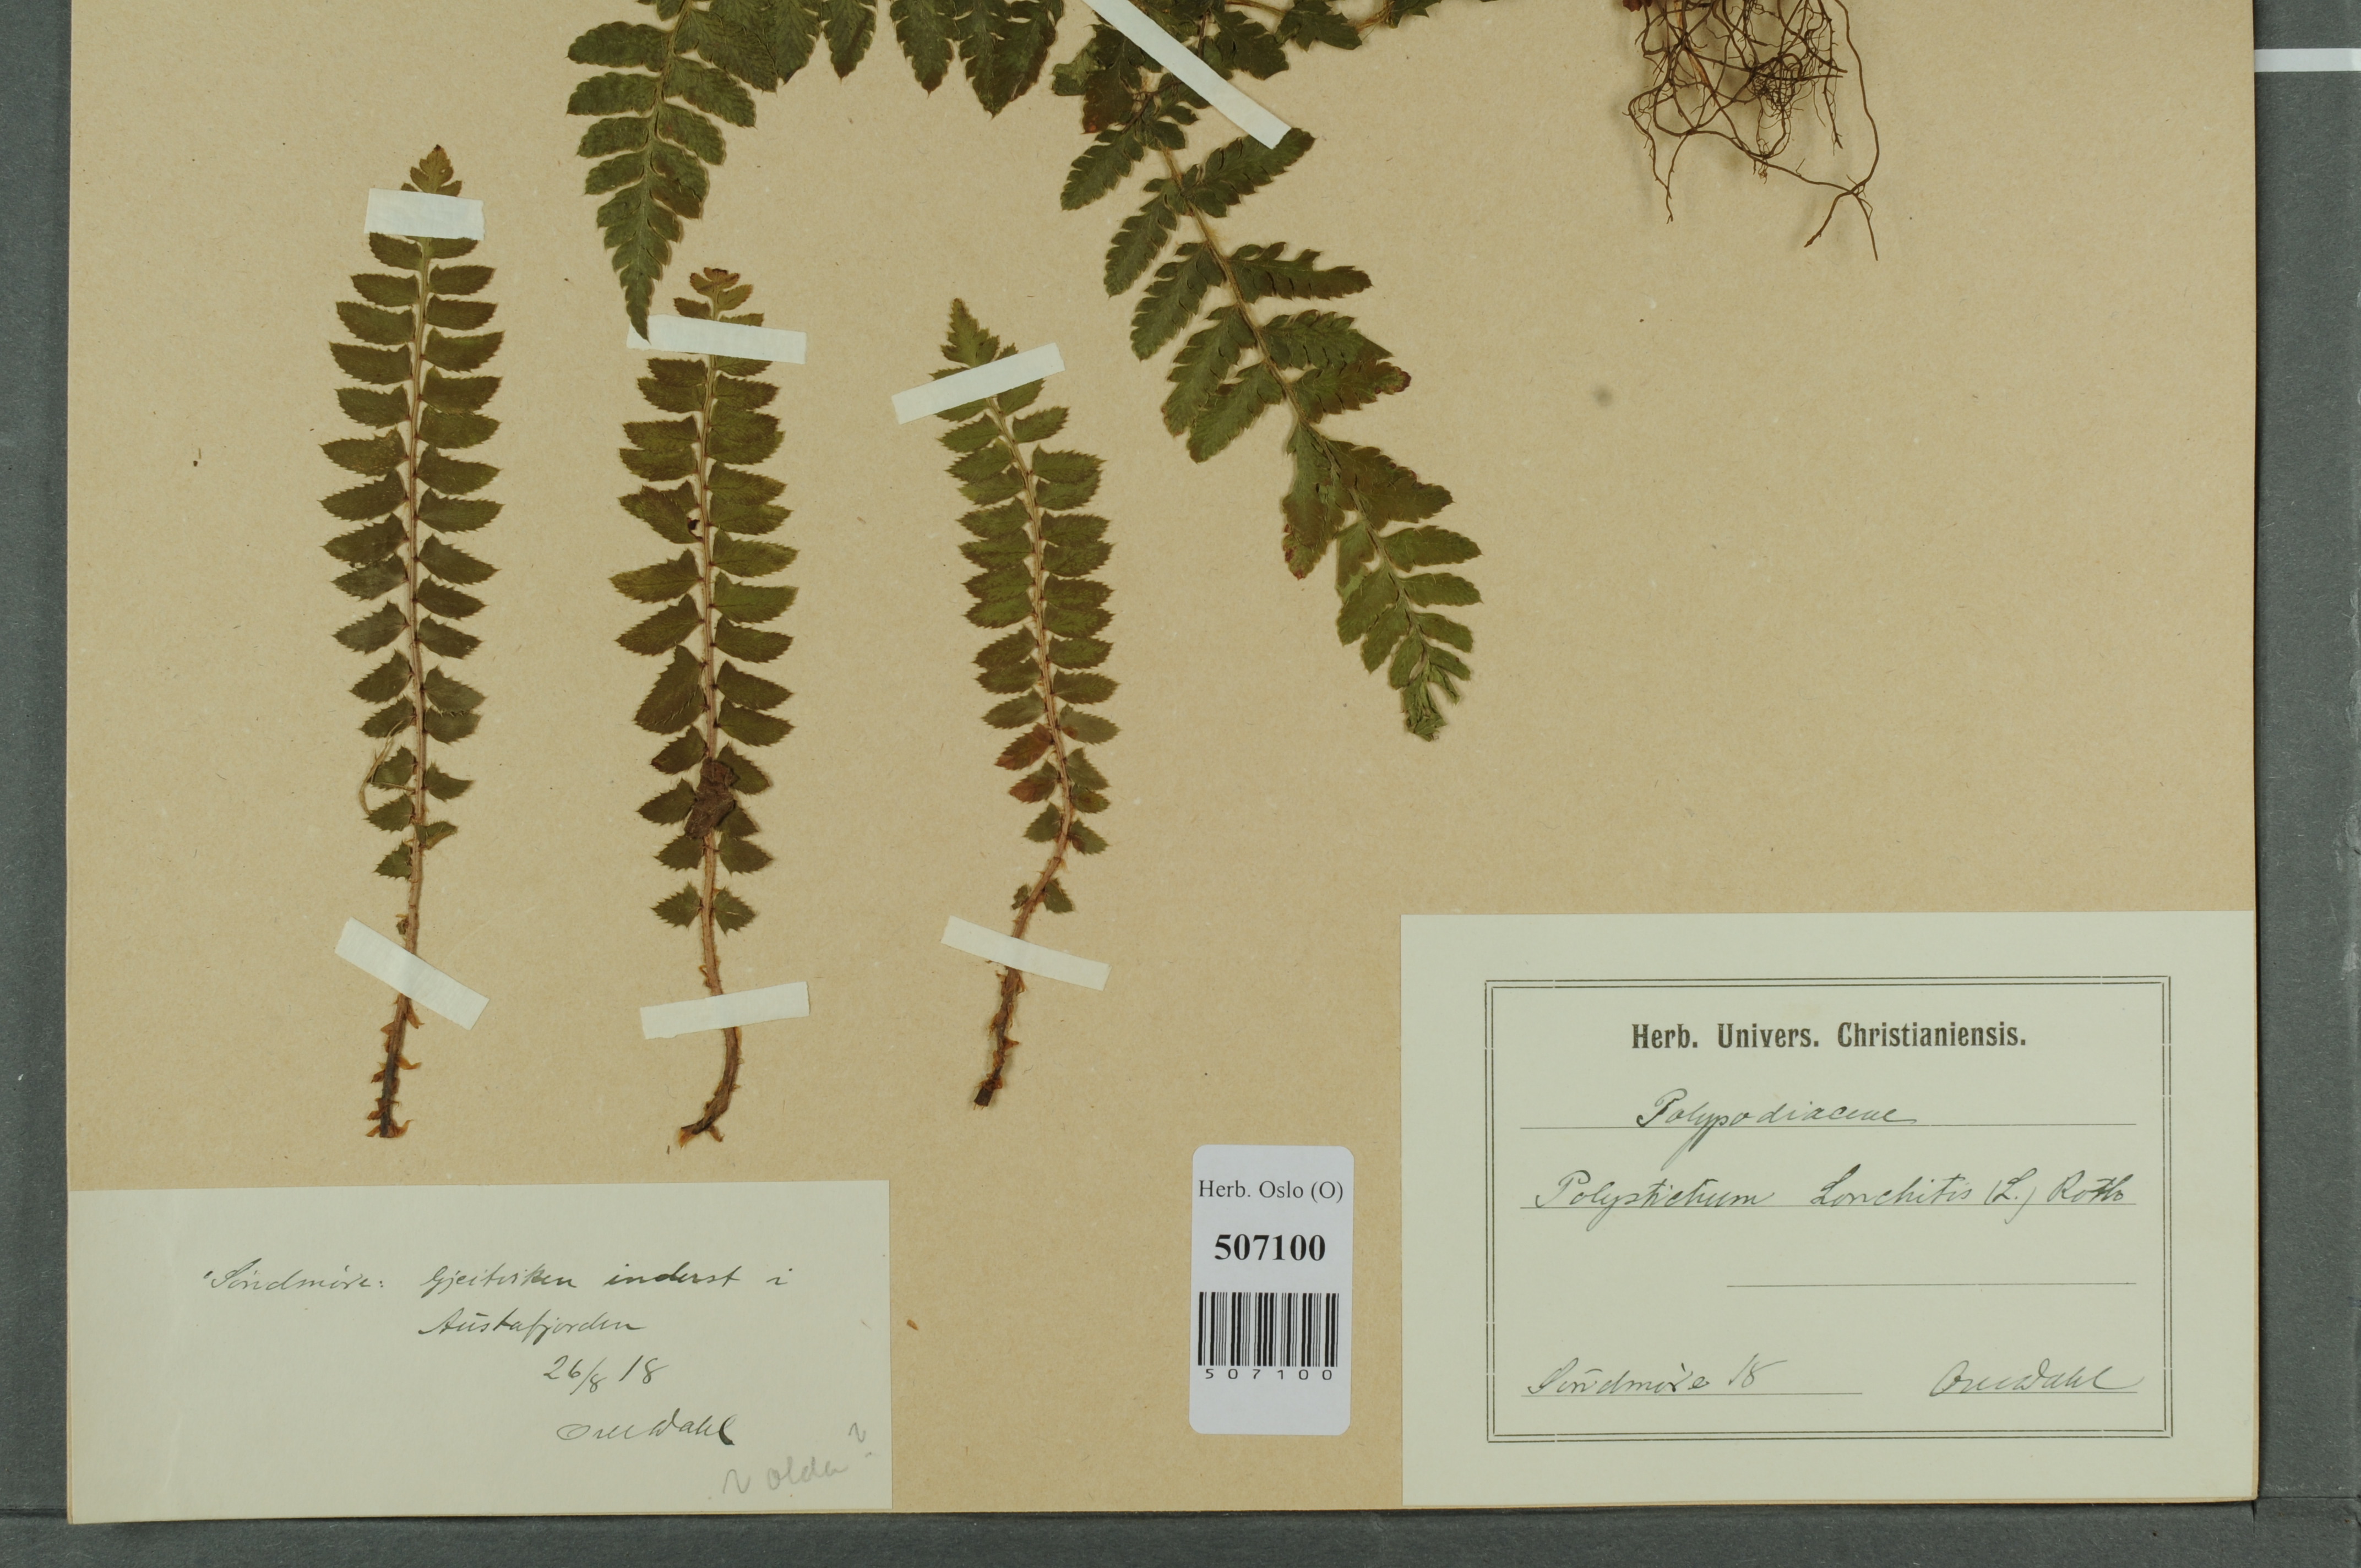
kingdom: Plantae
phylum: Tracheophyta
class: Polypodiopsida
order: Polypodiales
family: Dryopteridaceae
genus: Polystichum
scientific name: Polystichum lonchitis
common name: Holly fern
